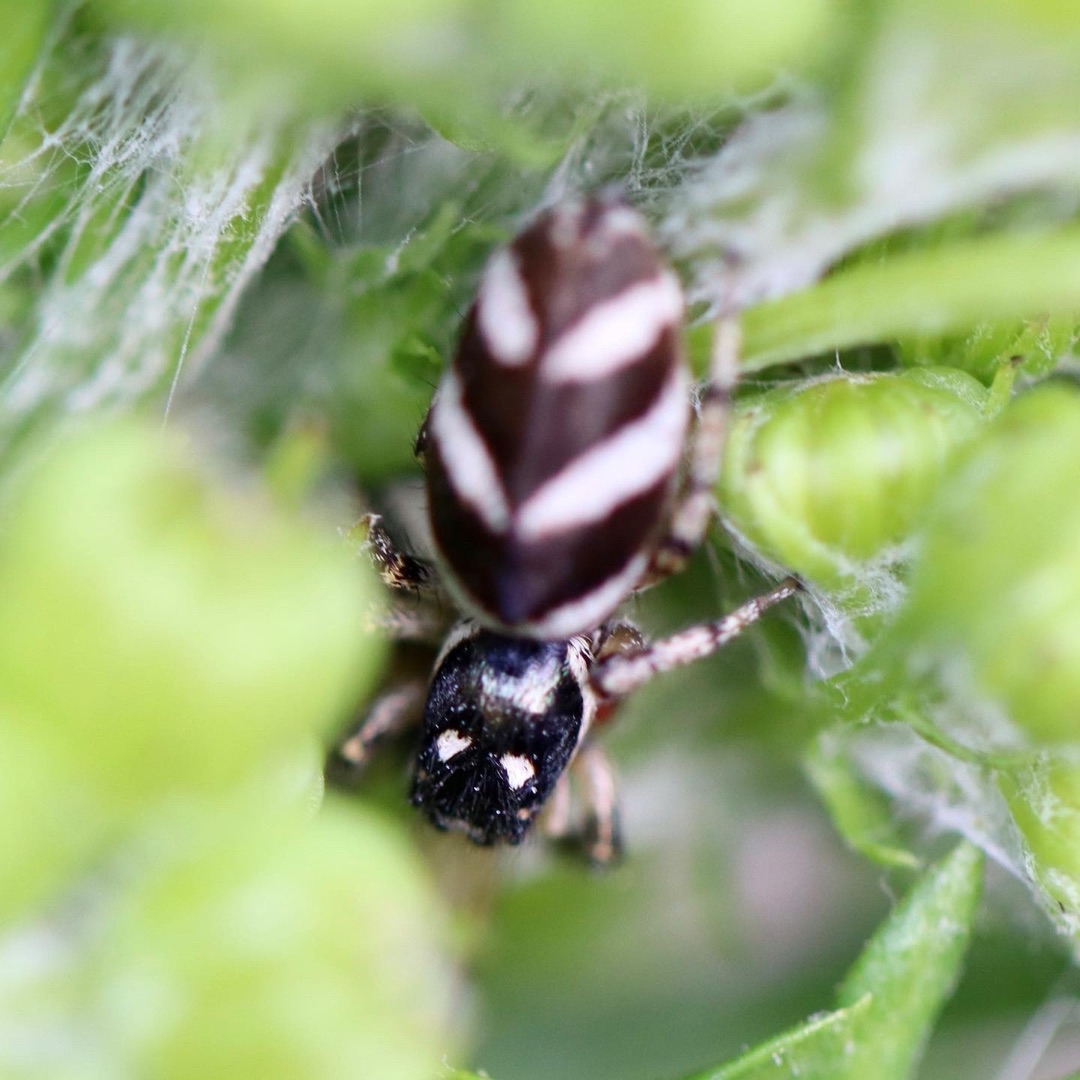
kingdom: Animalia
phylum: Arthropoda
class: Arachnida
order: Araneae
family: Salticidae
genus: Salticus
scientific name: Salticus scenicus
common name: Almindelig zebraedderkop
